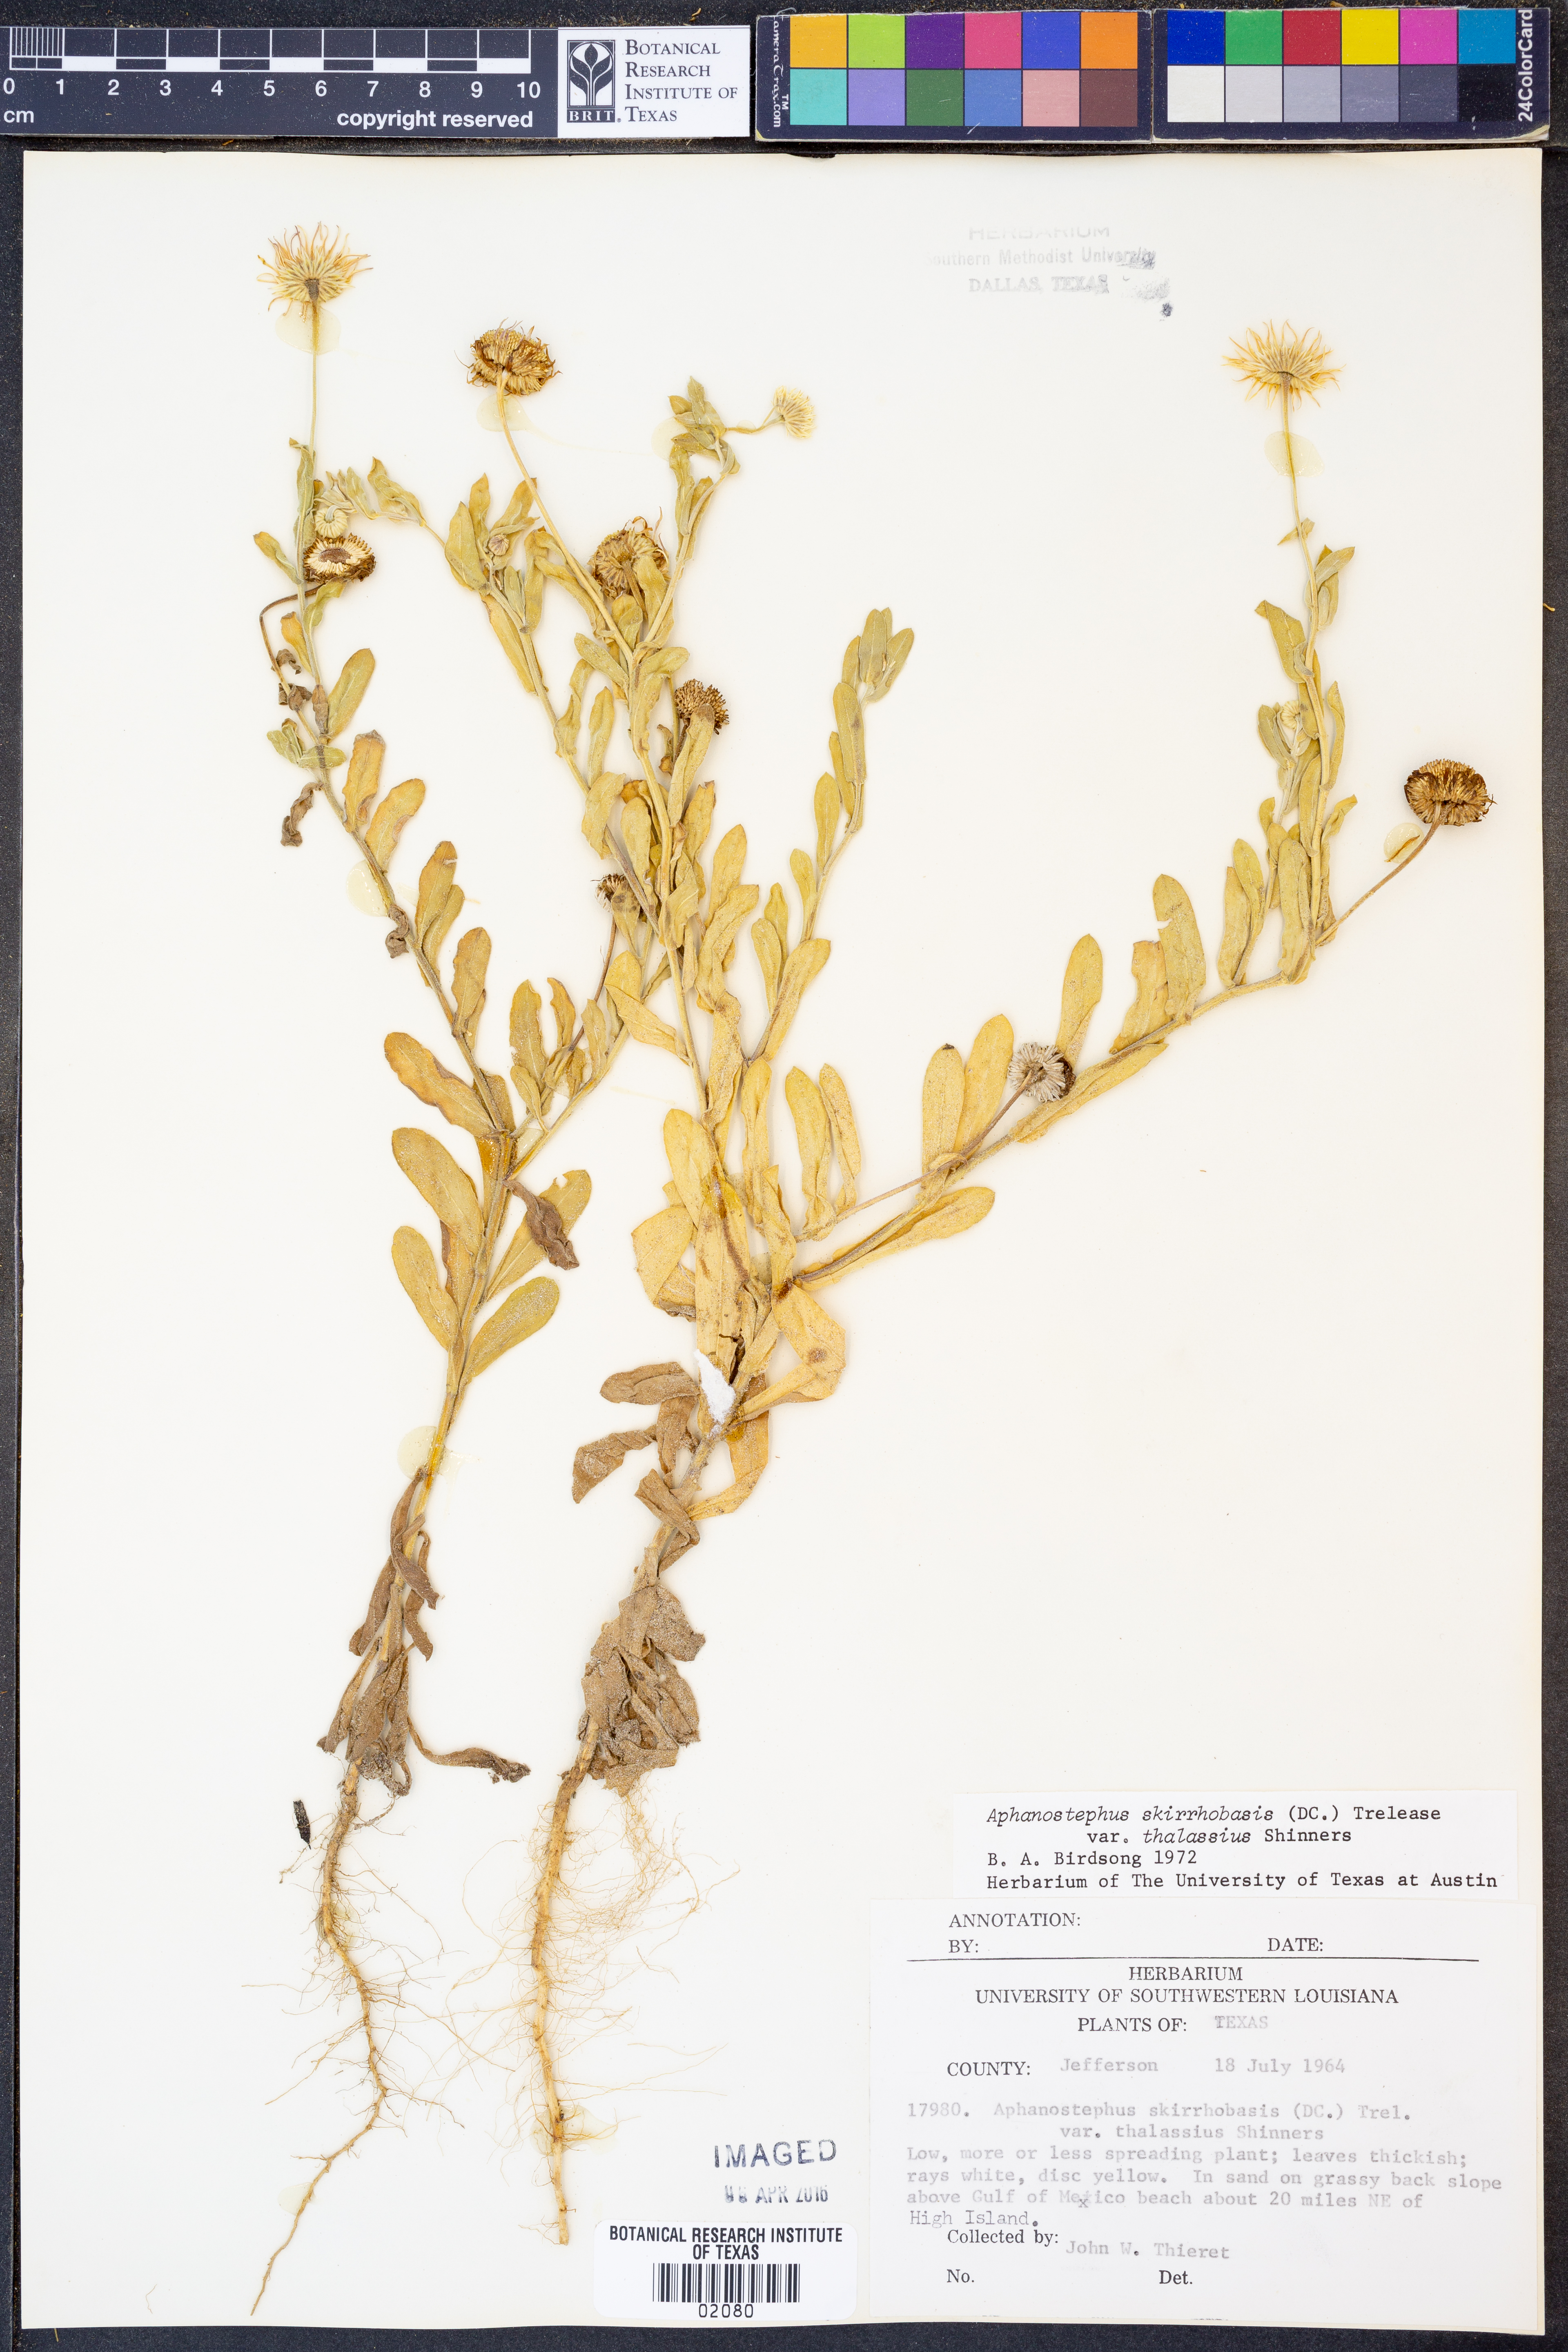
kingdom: Plantae
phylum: Tracheophyta
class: Magnoliopsida
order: Asterales
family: Asteraceae
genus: Aphanostephus
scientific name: Aphanostephus skirrhobasis
